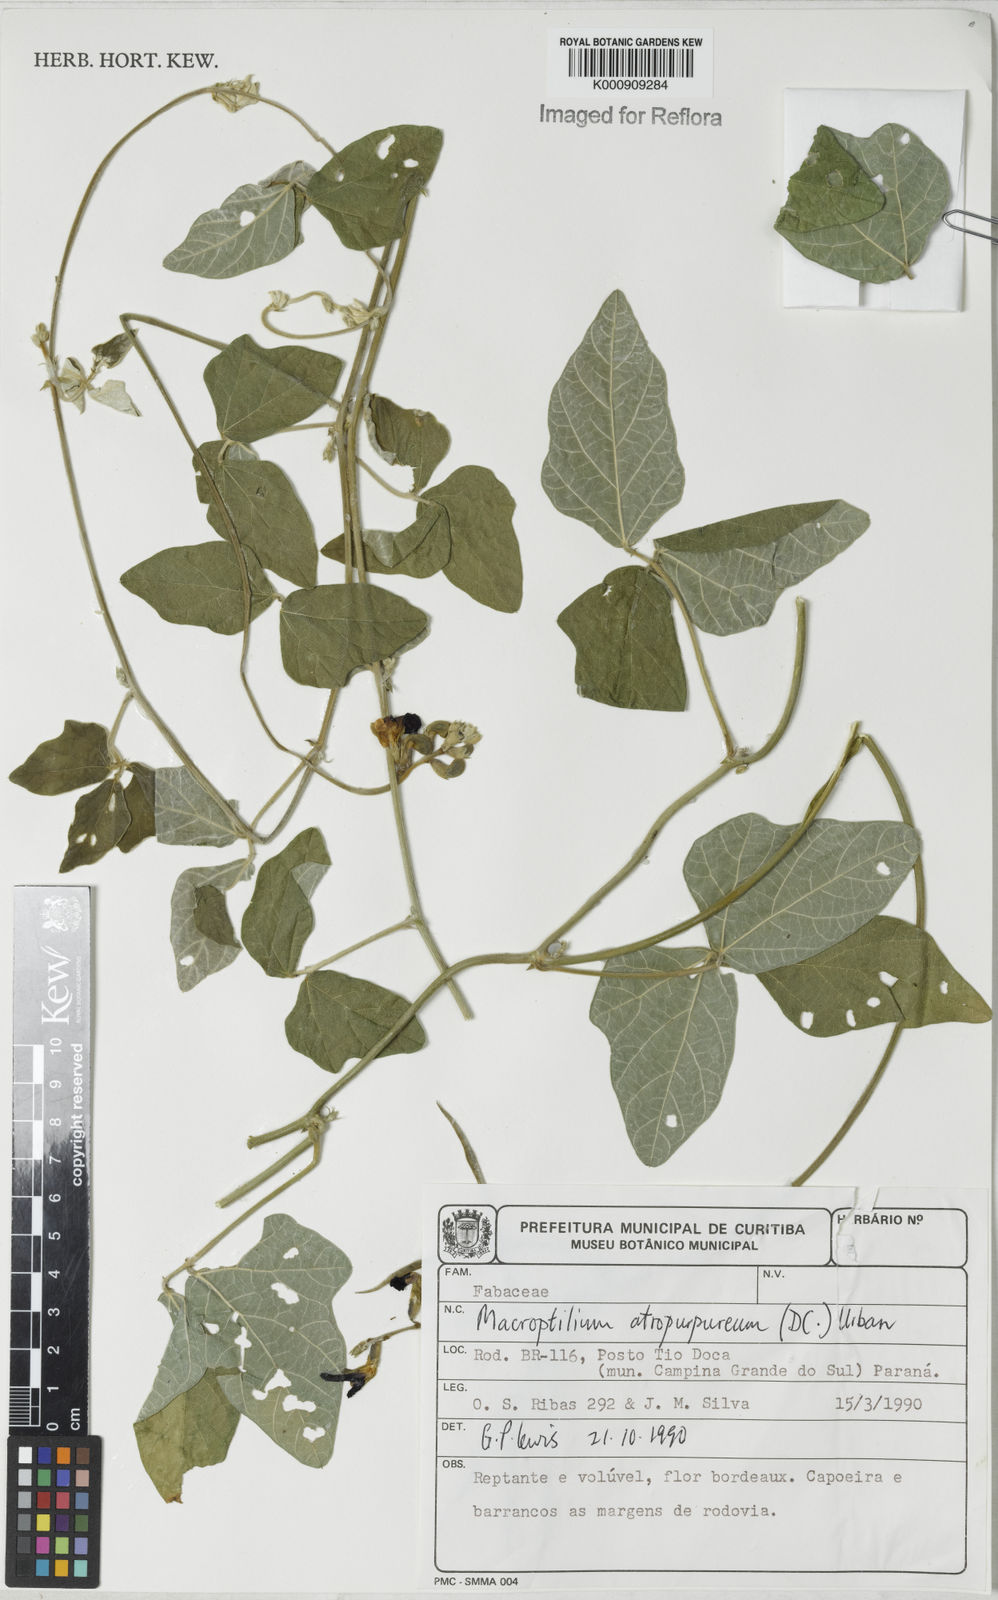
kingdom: Plantae
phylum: Tracheophyta
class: Magnoliopsida
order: Fabales
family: Fabaceae
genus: Macroptilium
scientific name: Macroptilium atropurpureum
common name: Purple bushbean
